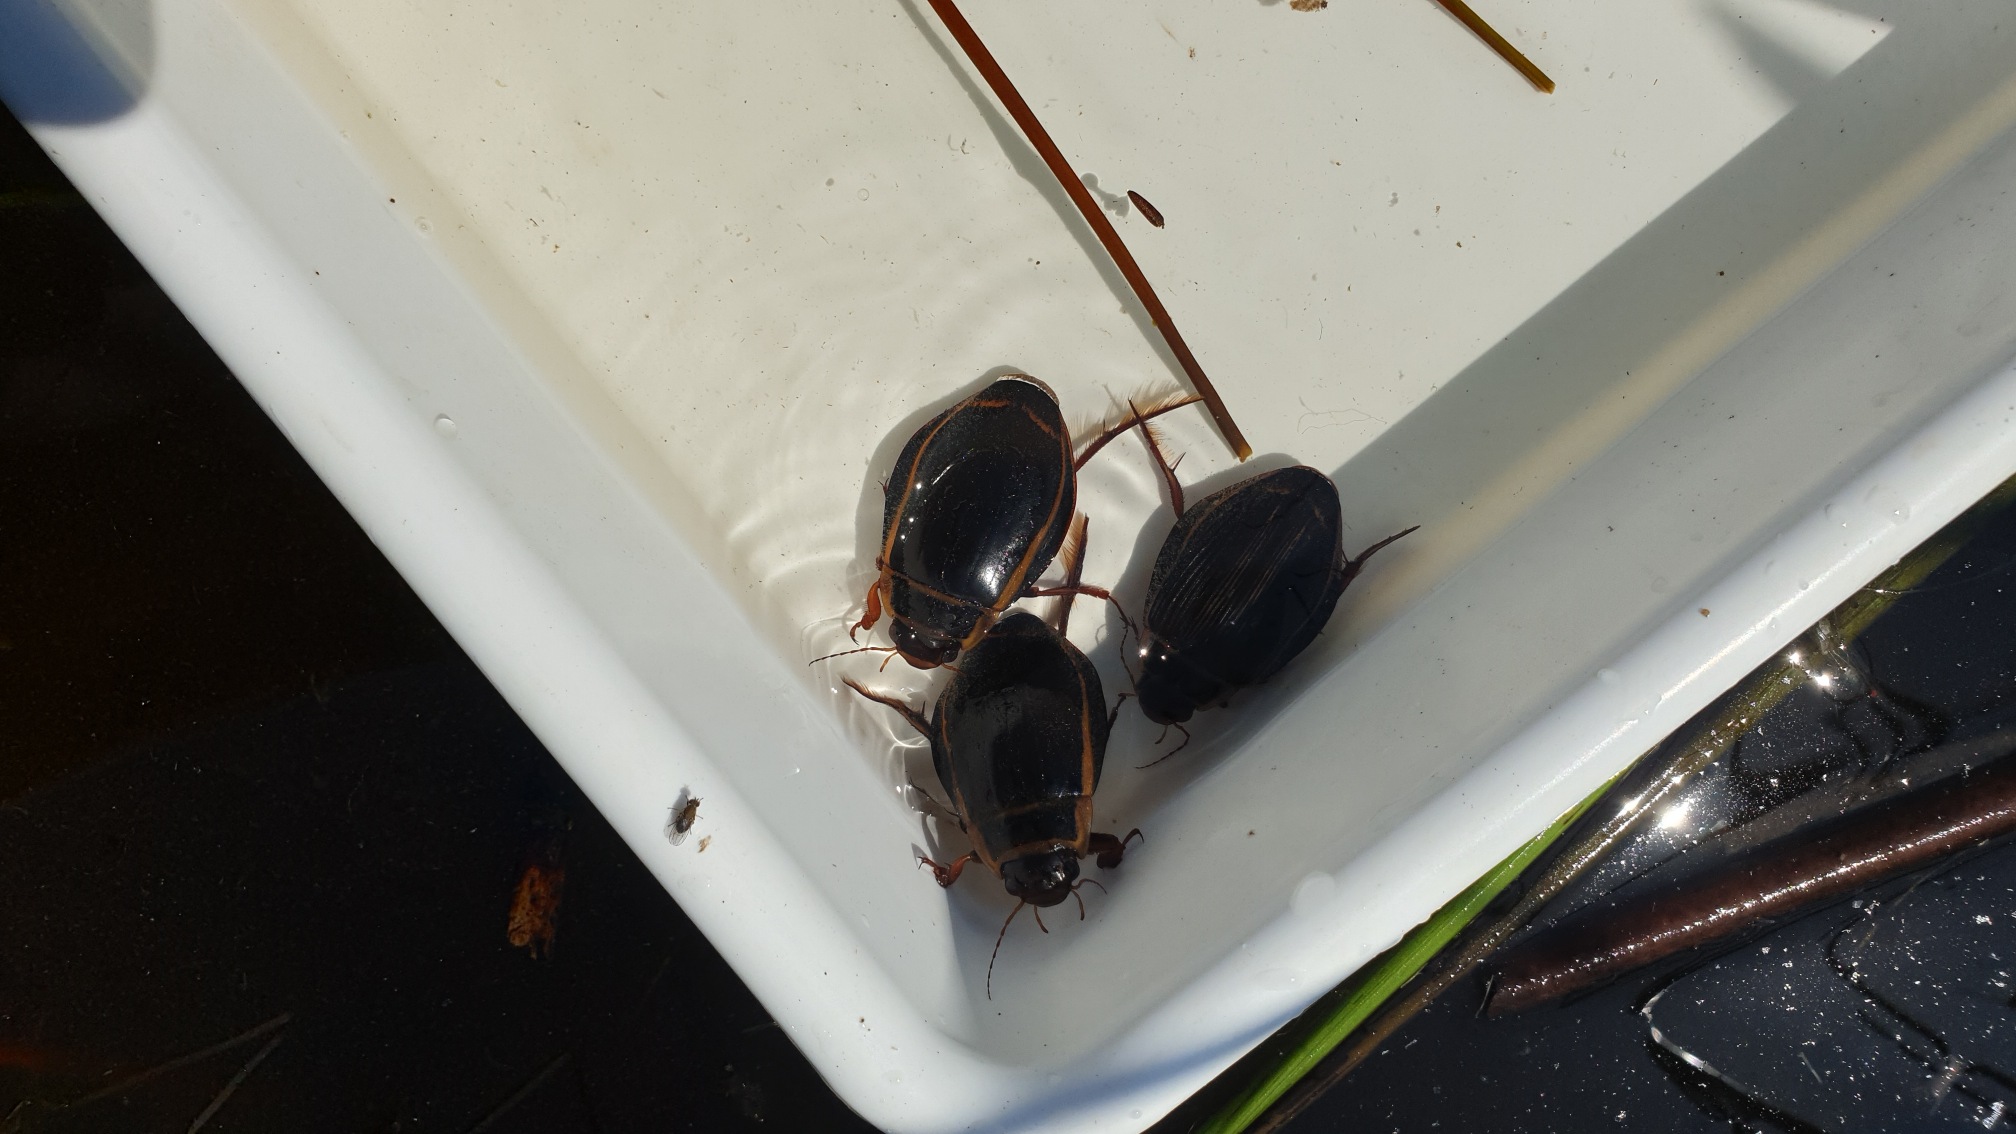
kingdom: Animalia
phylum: Arthropoda
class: Insecta
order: Coleoptera
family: Dytiscidae
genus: Dytiscus
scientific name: Dytiscus latissimus
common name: Bred vandkalv
